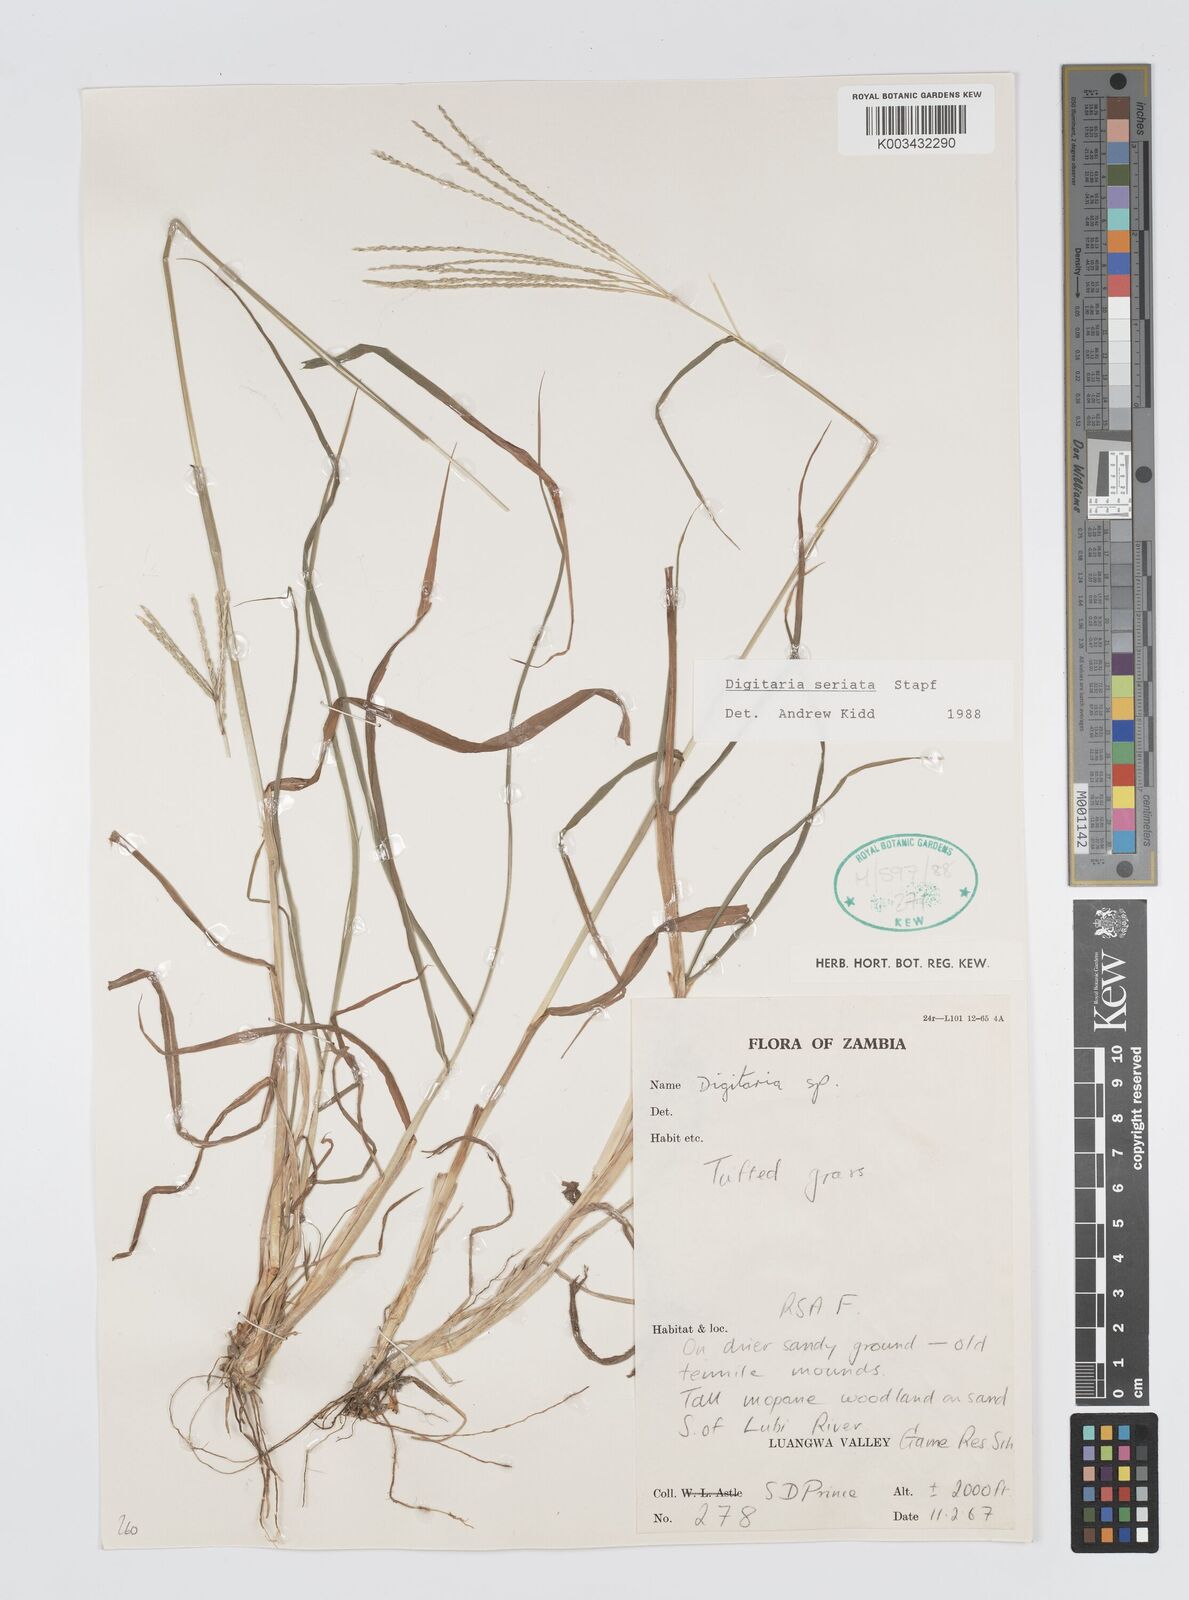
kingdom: Plantae
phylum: Tracheophyta
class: Liliopsida
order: Poales
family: Poaceae
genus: Digitaria
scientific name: Digitaria seriata
